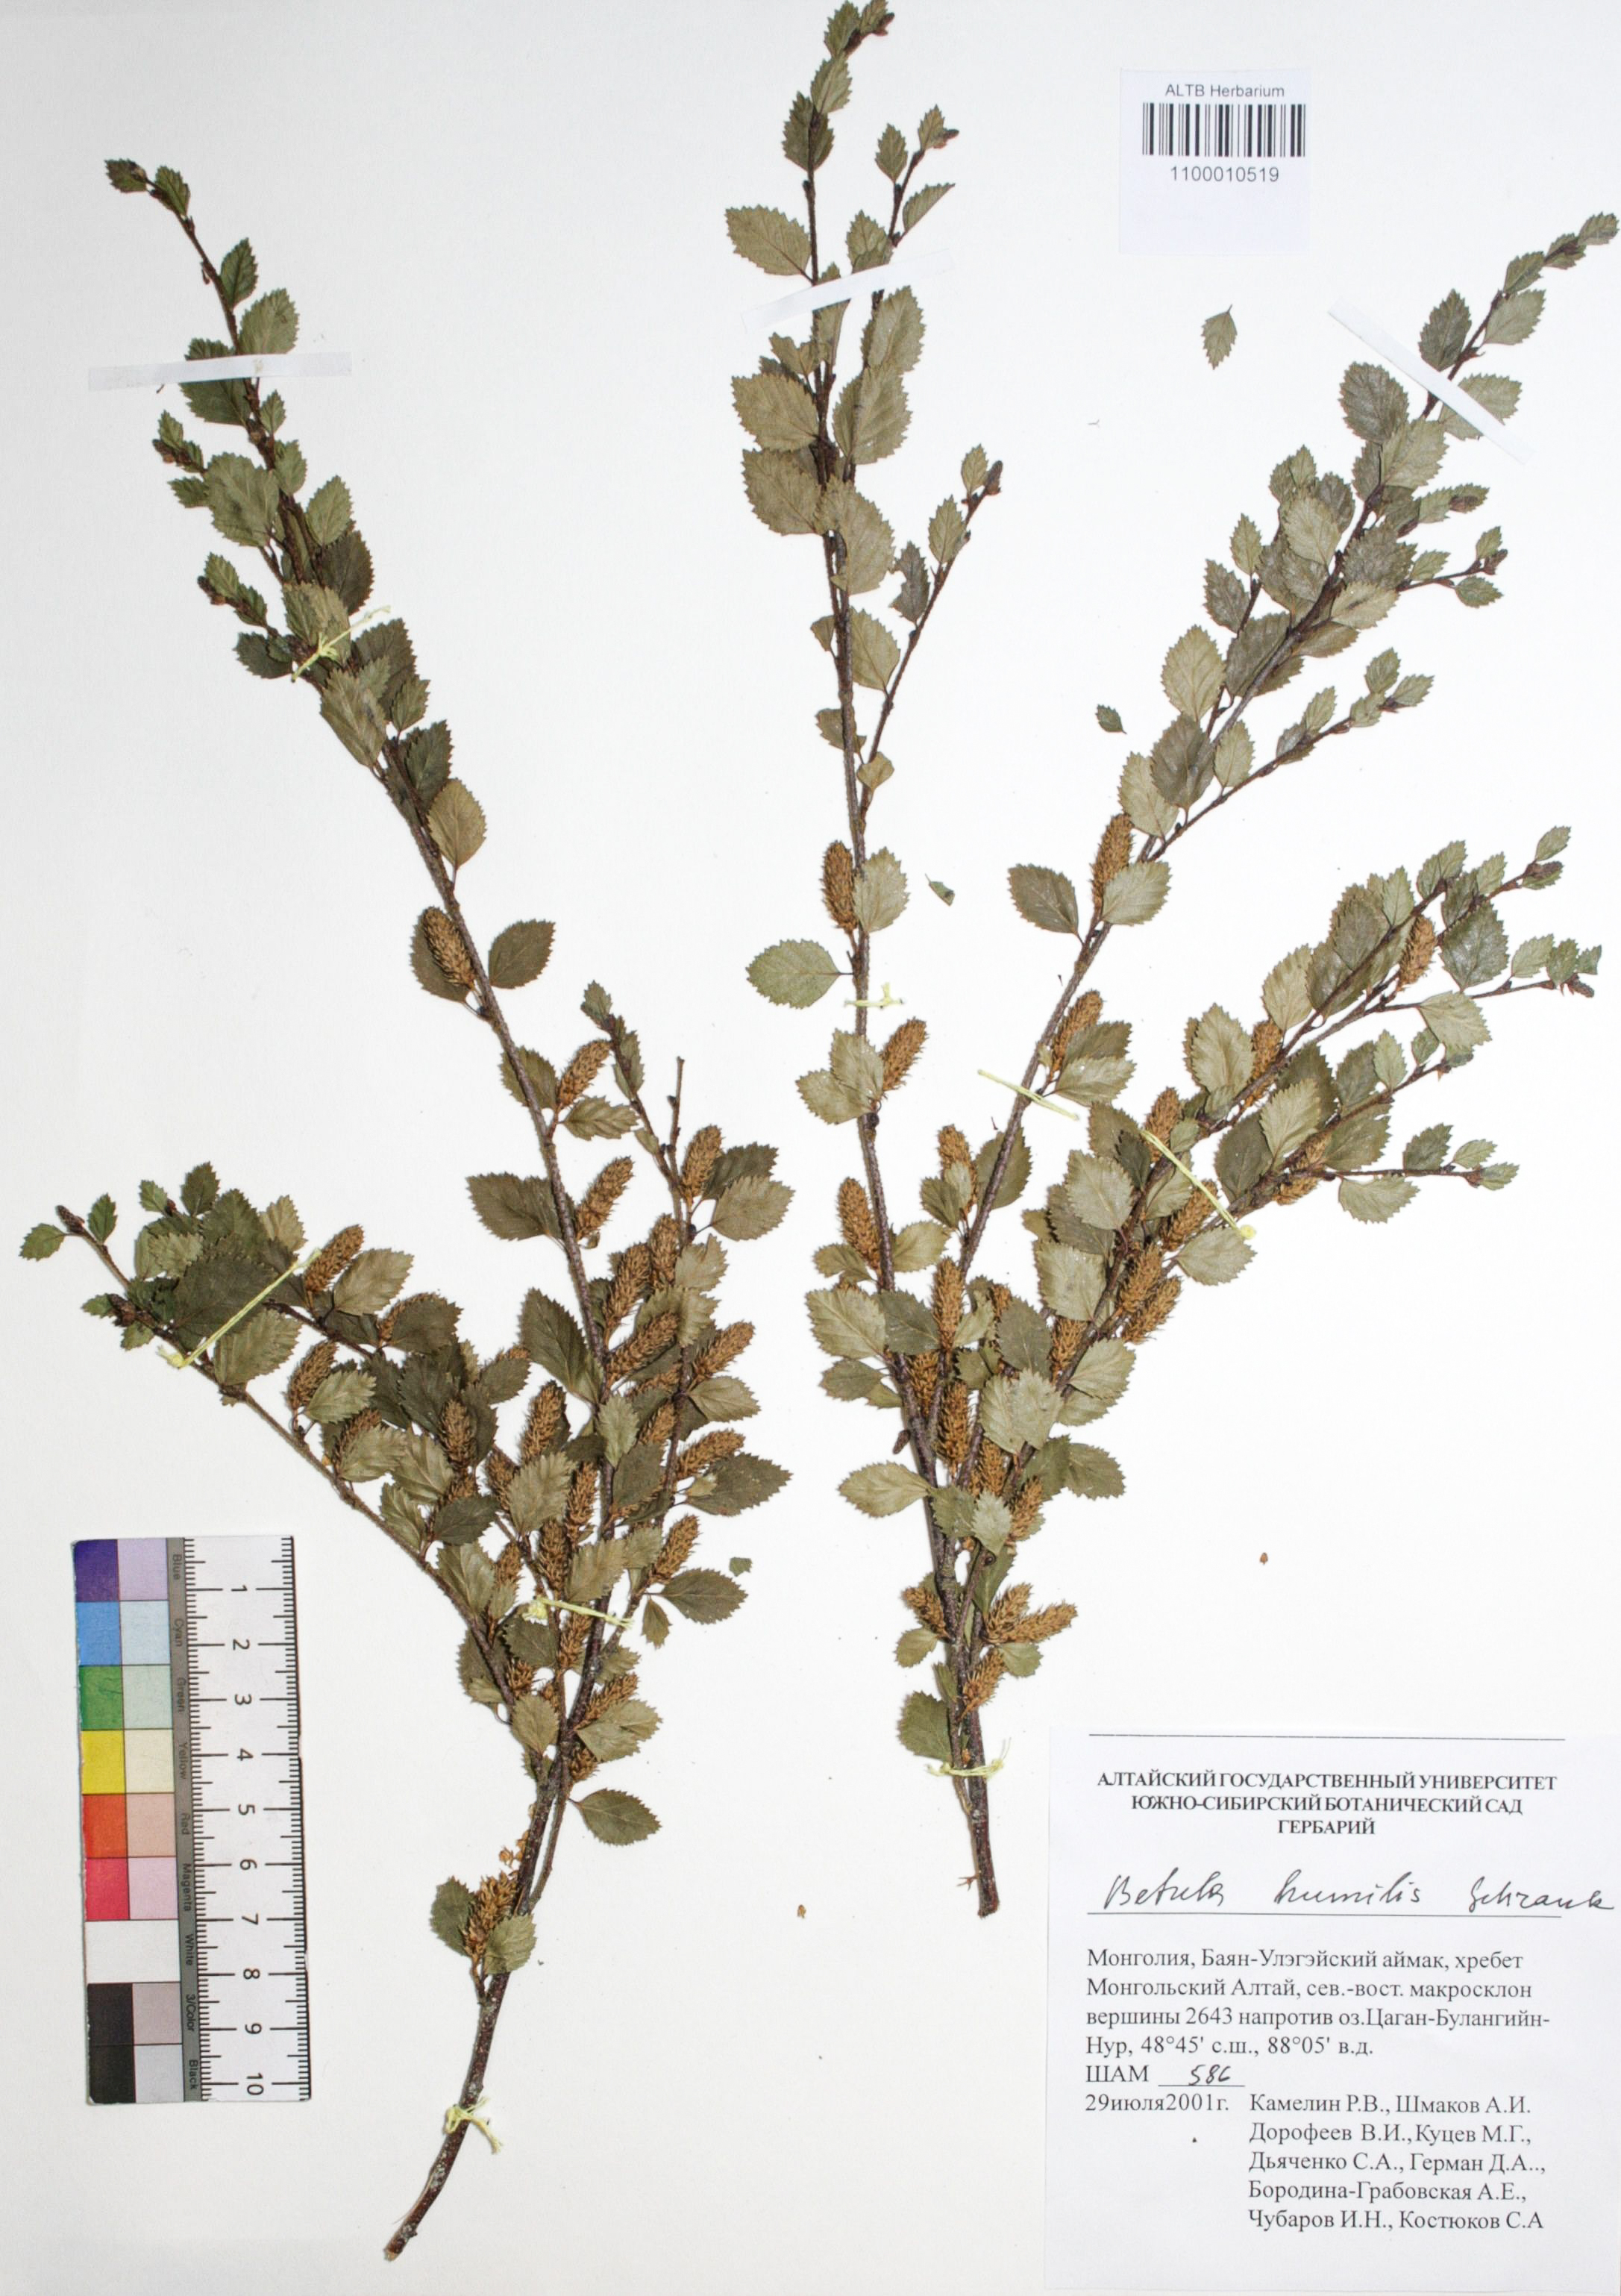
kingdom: Plantae
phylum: Tracheophyta
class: Magnoliopsida
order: Fagales
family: Betulaceae
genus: Betula
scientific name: Betula humilis
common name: Shrubby birch
